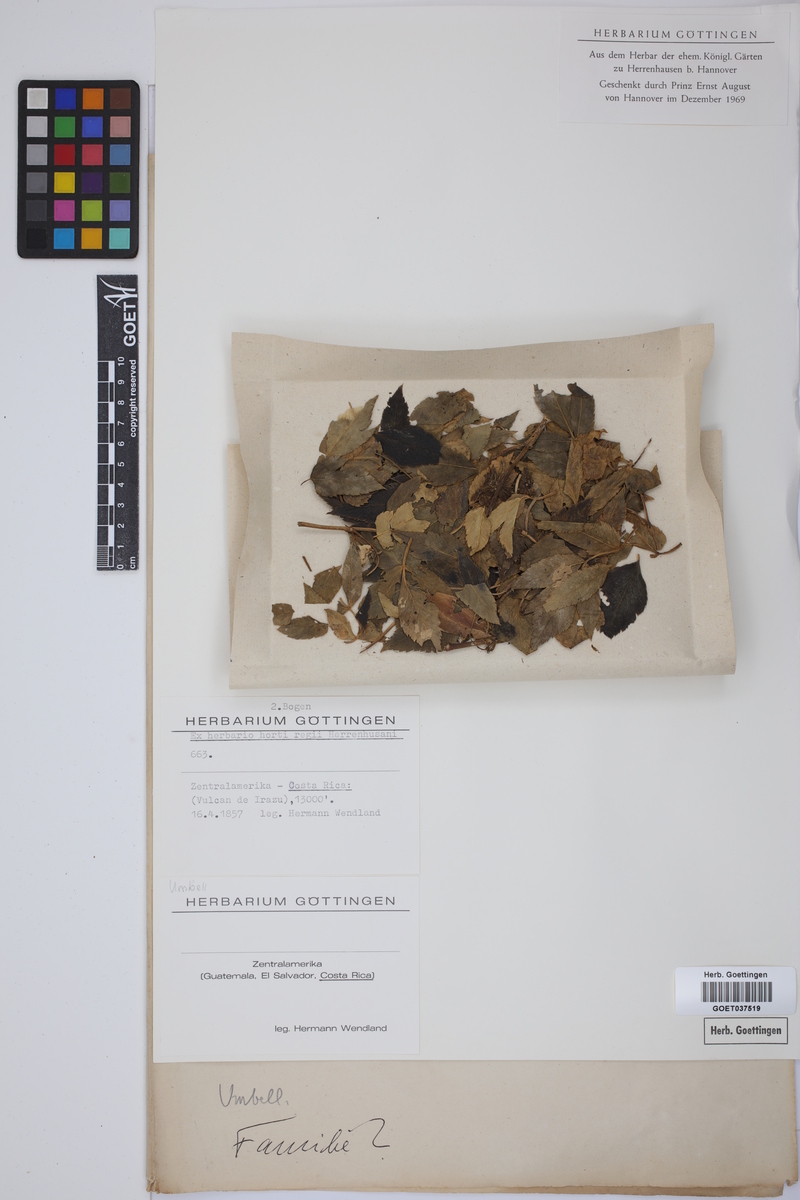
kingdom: Plantae
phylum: Tracheophyta
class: Magnoliopsida
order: Apiales
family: Apiaceae
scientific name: Apiaceae
